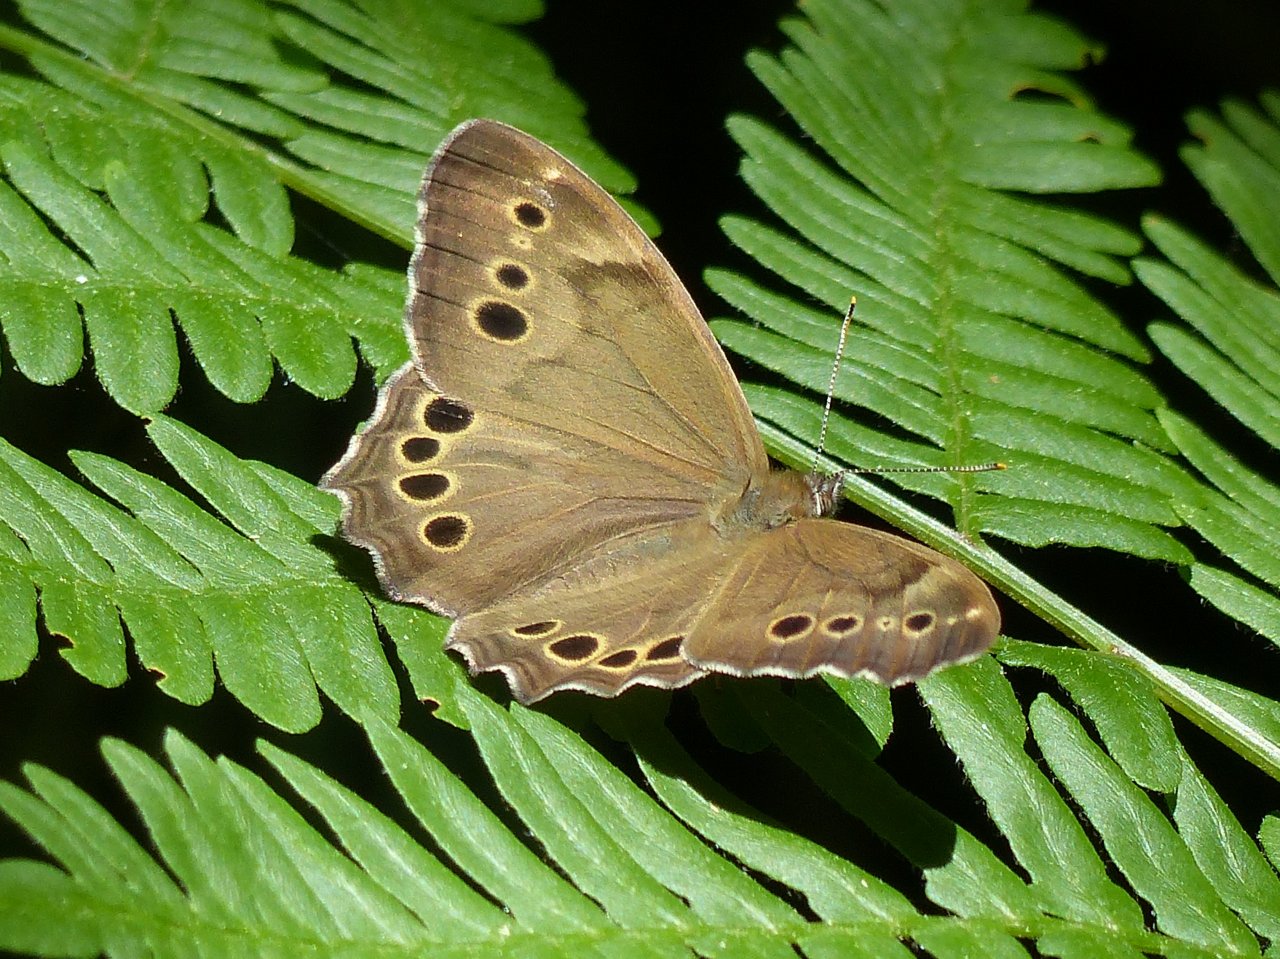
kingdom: Animalia
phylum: Arthropoda
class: Insecta
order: Lepidoptera
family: Nymphalidae
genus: Lethe
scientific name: Lethe anthedon
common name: Northern Pearly-Eye
